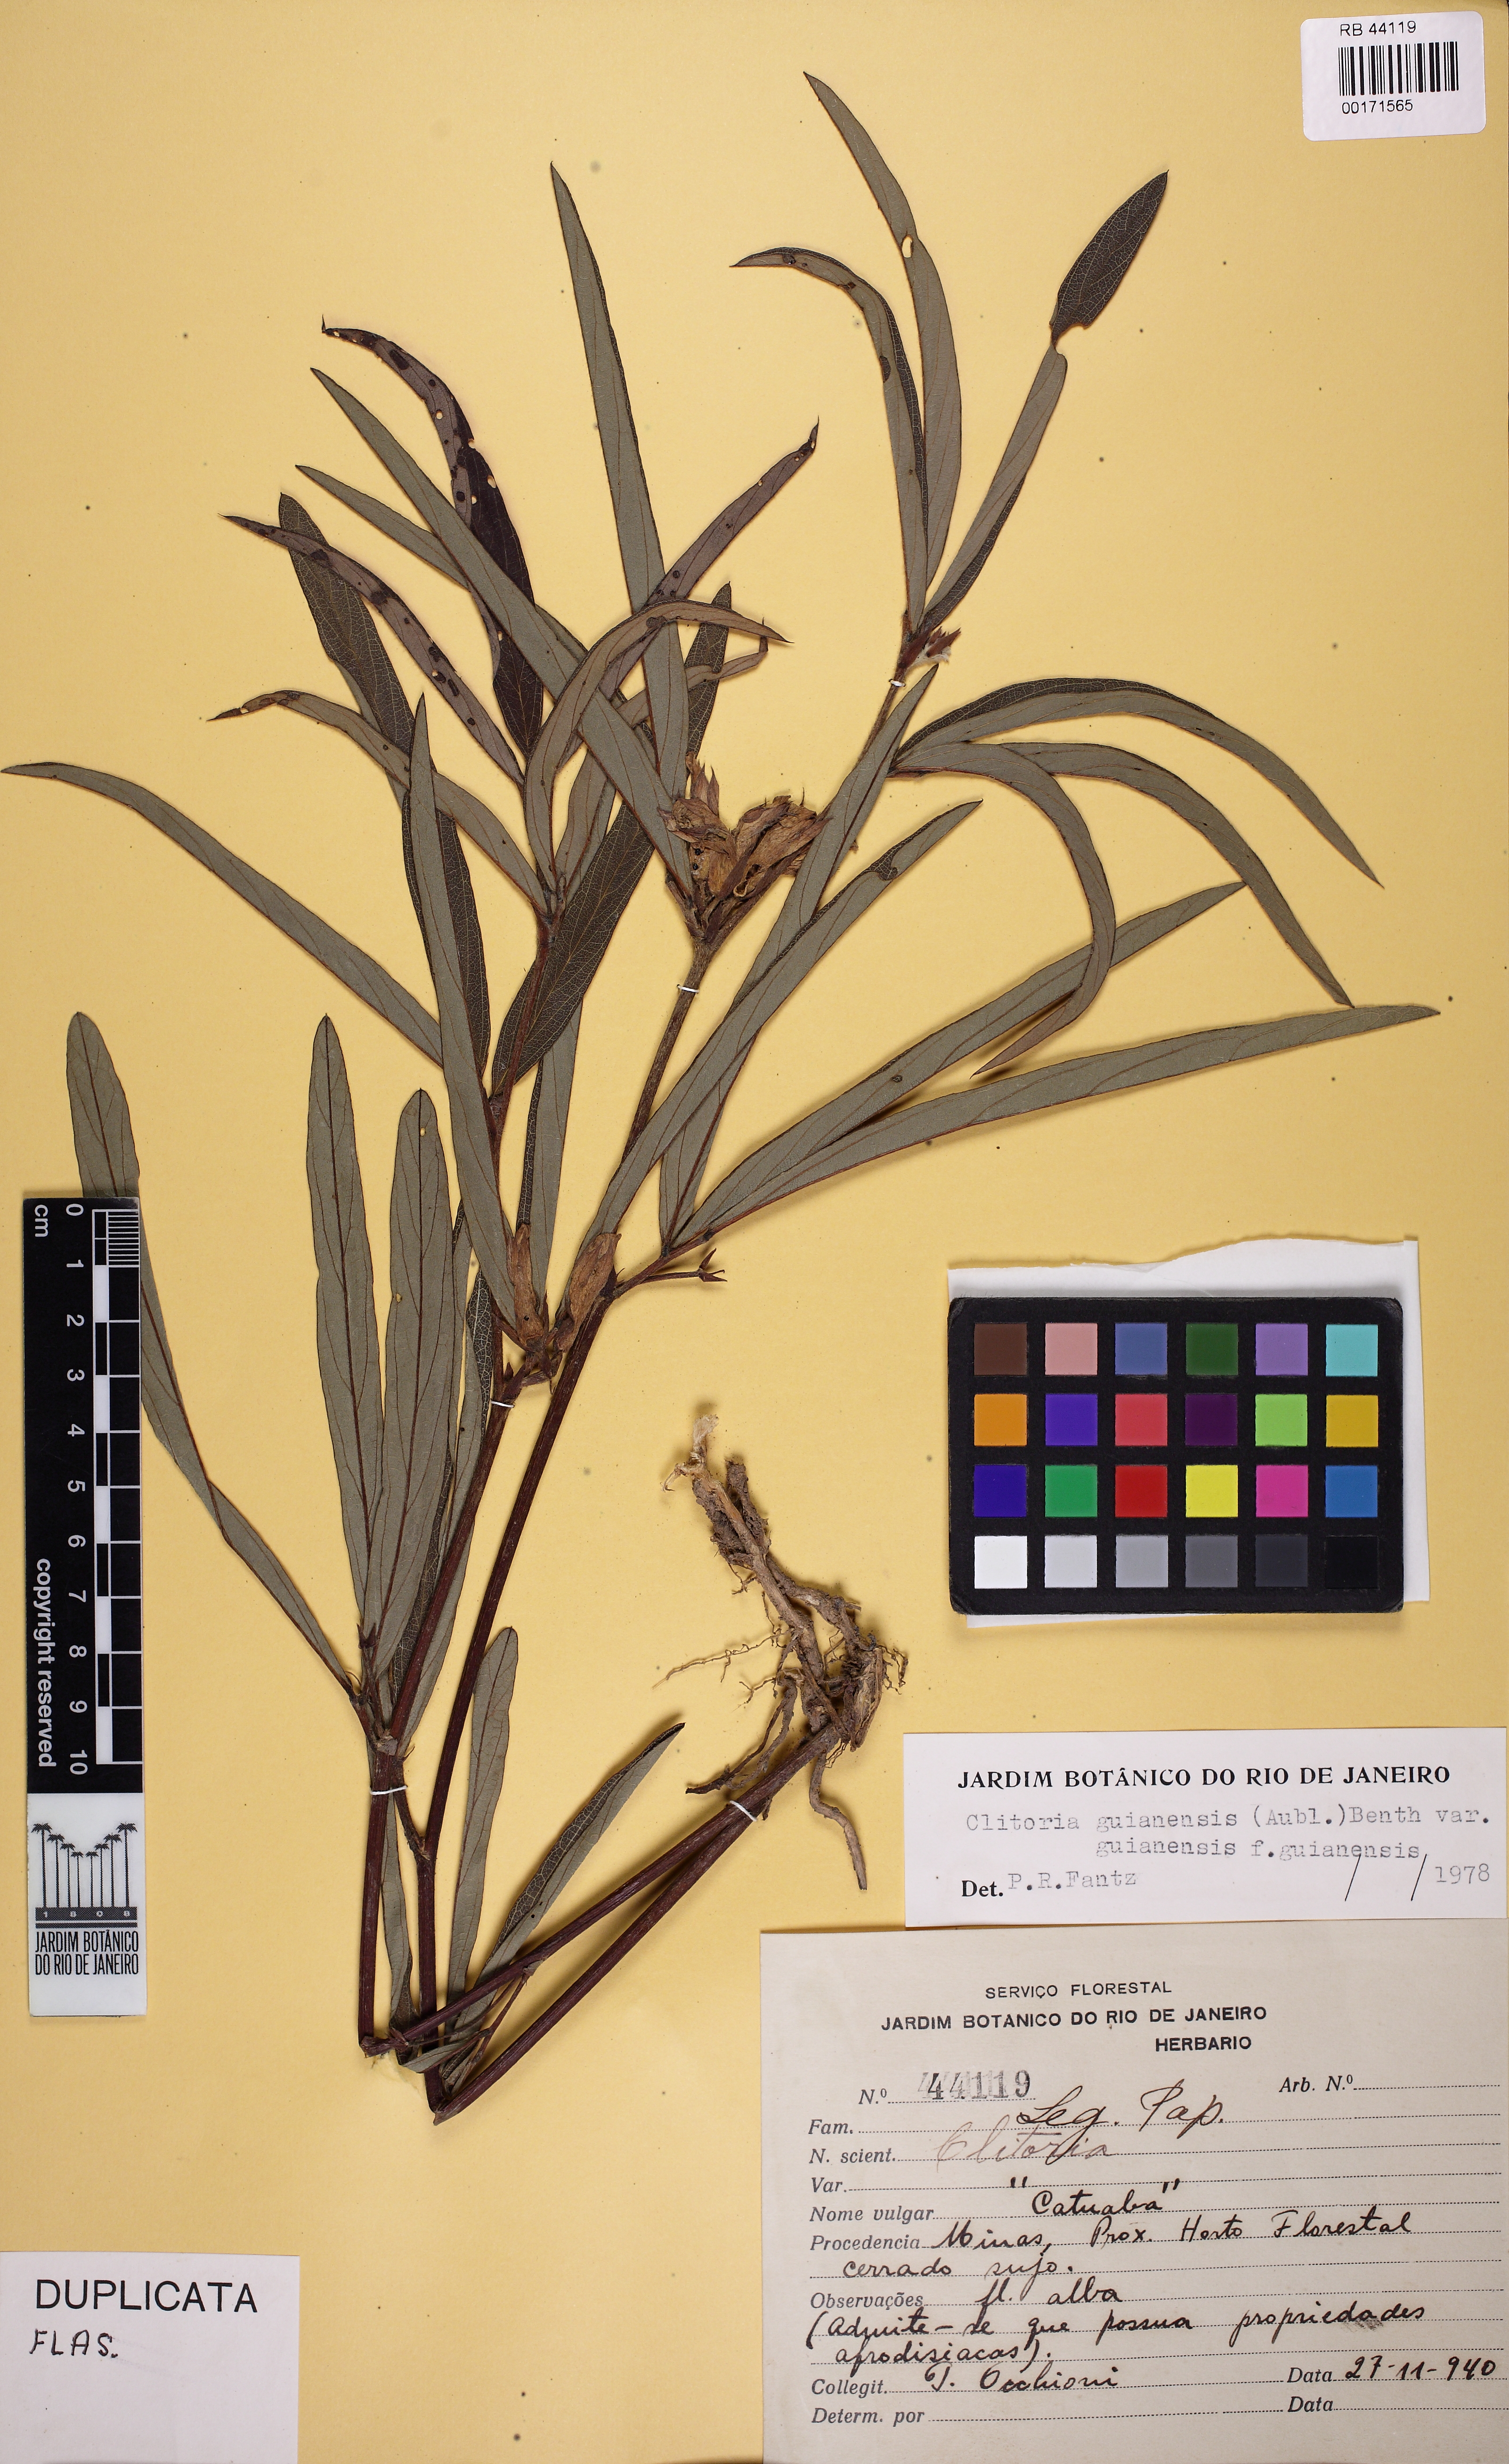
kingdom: Plantae
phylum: Tracheophyta
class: Magnoliopsida
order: Fabales
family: Fabaceae
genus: Clitoria
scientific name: Clitoria guianensis
